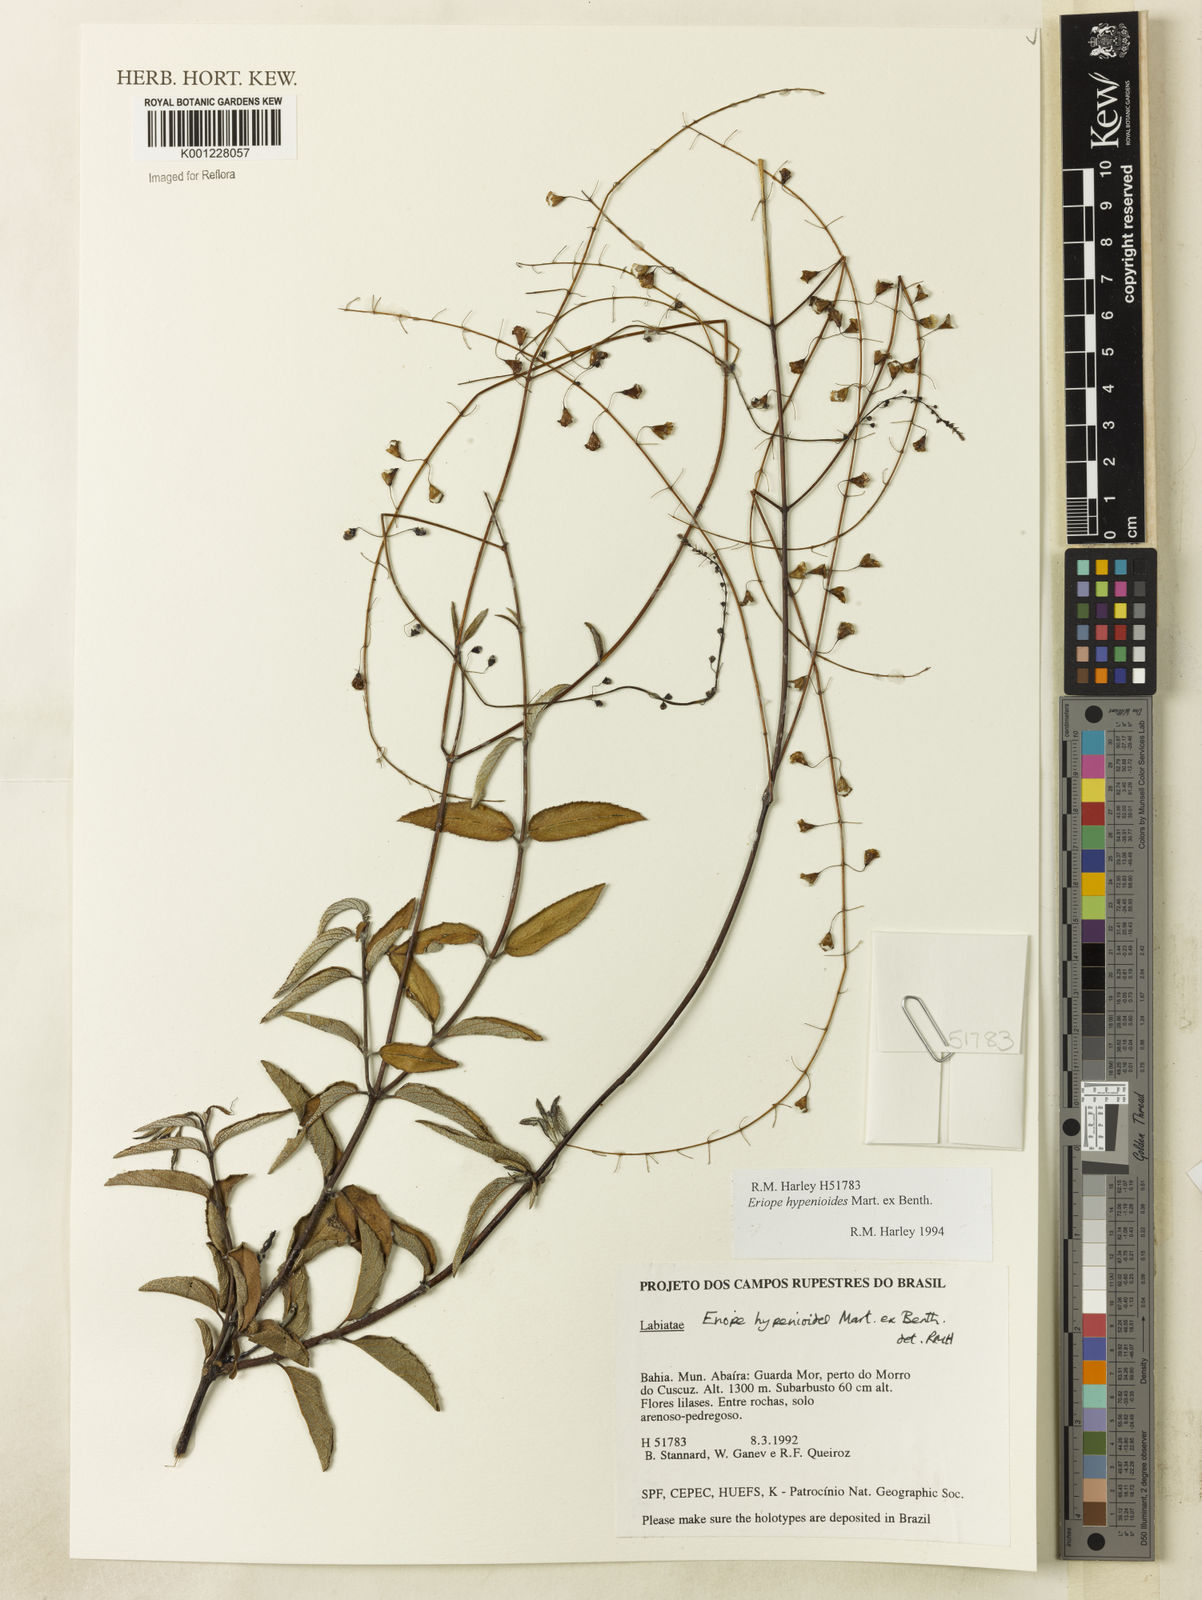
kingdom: Plantae
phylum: Tracheophyta
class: Magnoliopsida
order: Lamiales
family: Lamiaceae
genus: Eriope
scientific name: Eriope hypenioides
